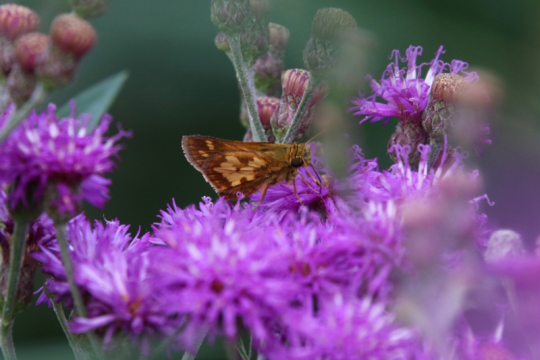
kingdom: Animalia
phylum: Arthropoda
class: Insecta
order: Lepidoptera
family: Hesperiidae
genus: Polites
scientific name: Polites coras
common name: Peck's Skipper
